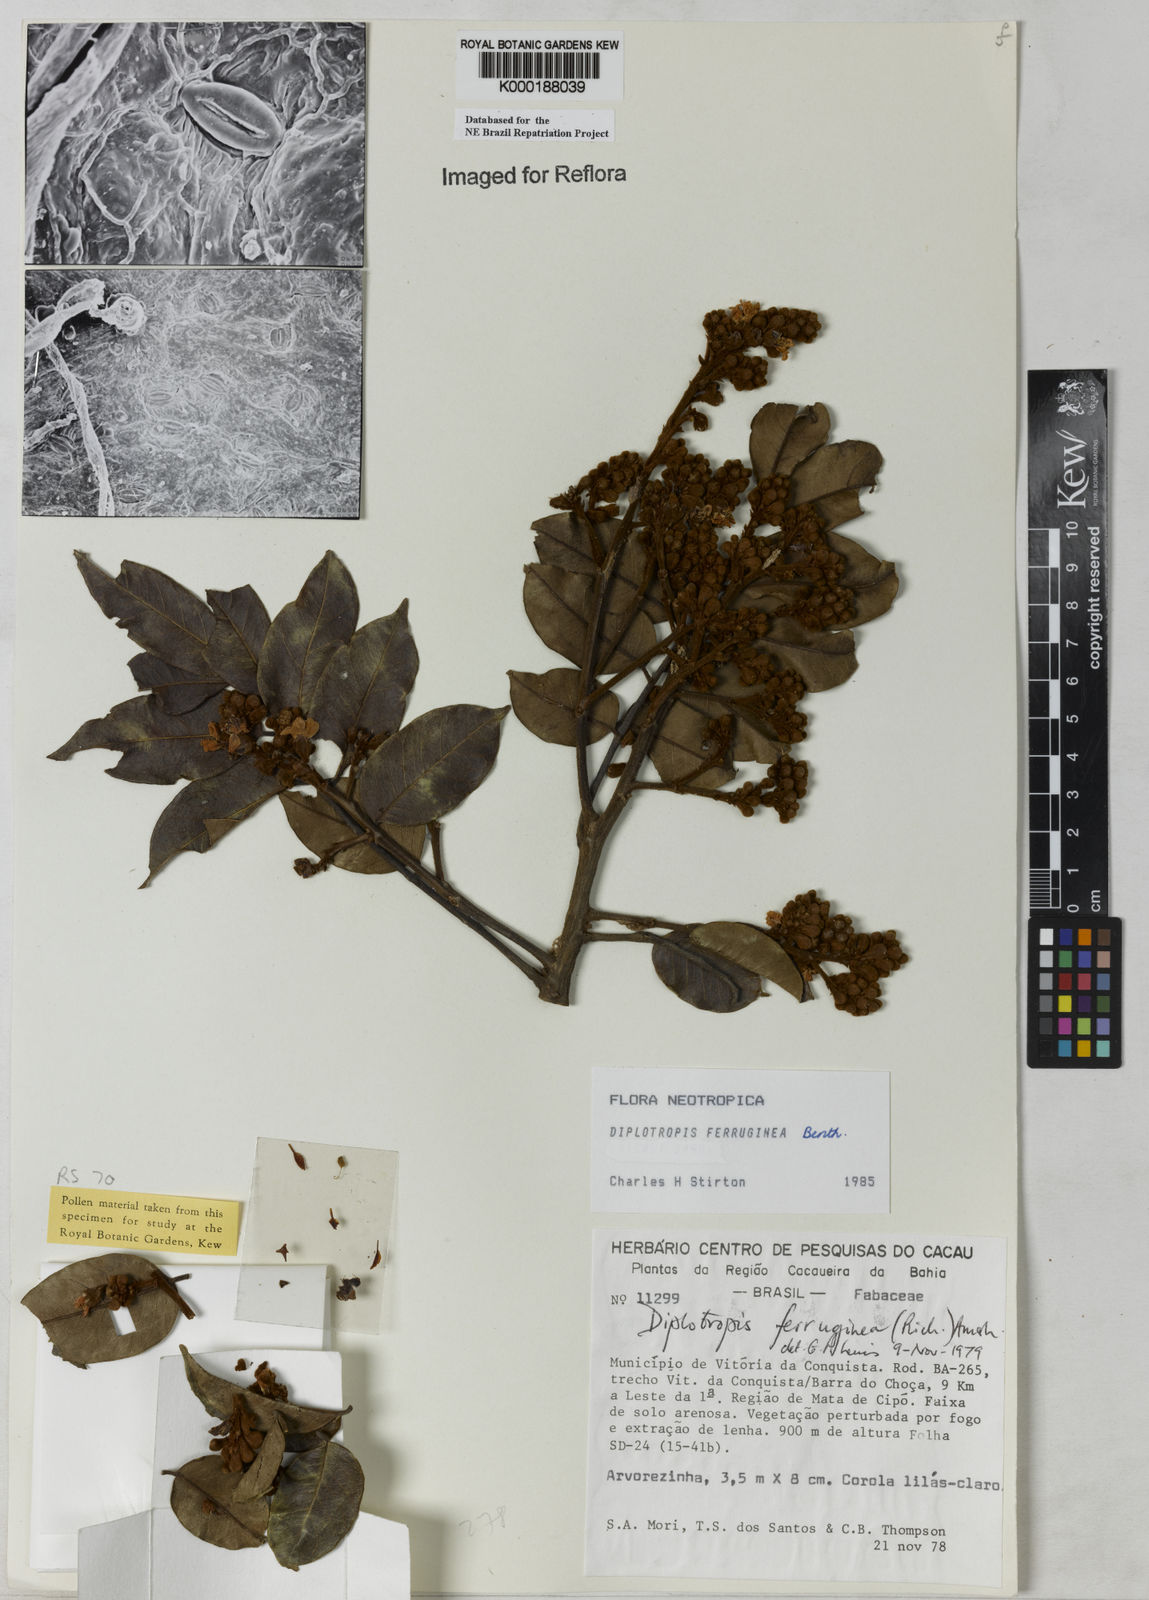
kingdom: Plantae
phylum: Tracheophyta
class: Magnoliopsida
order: Fabales
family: Fabaceae
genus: Diplotropis
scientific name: Diplotropis ferruginea
